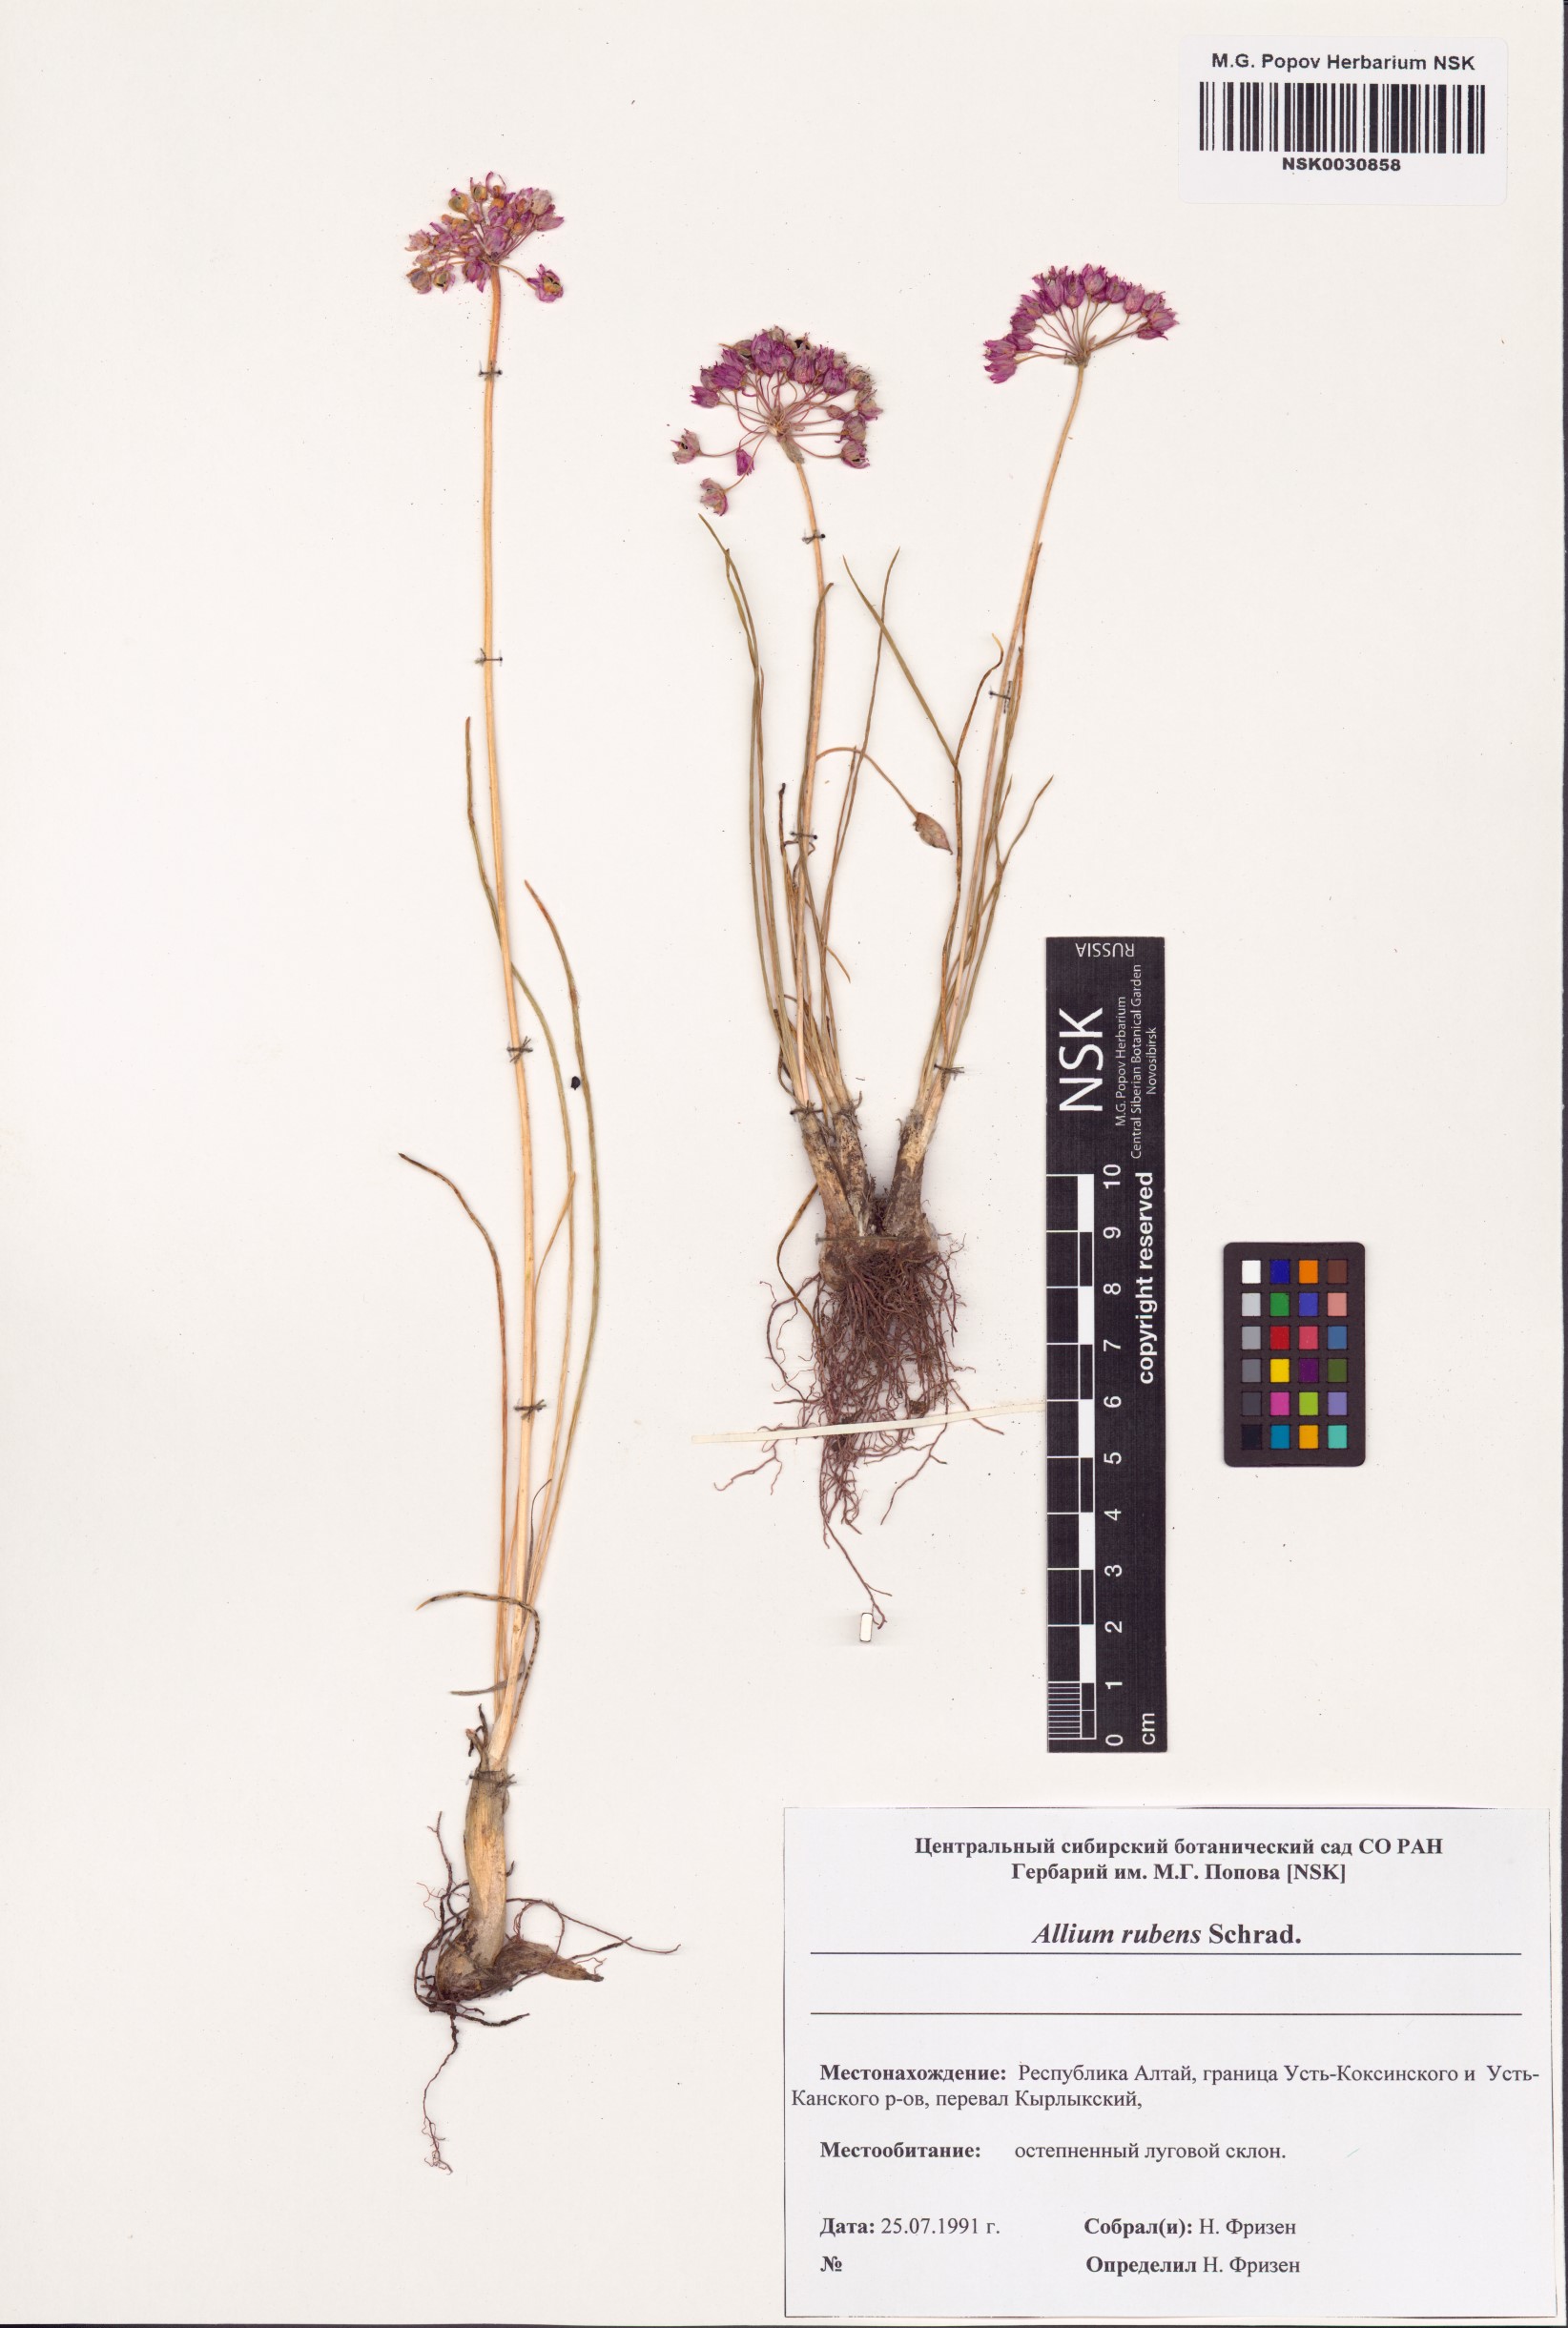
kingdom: Plantae
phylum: Tracheophyta
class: Liliopsida
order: Asparagales
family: Amaryllidaceae
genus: Allium
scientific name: Allium rubens
